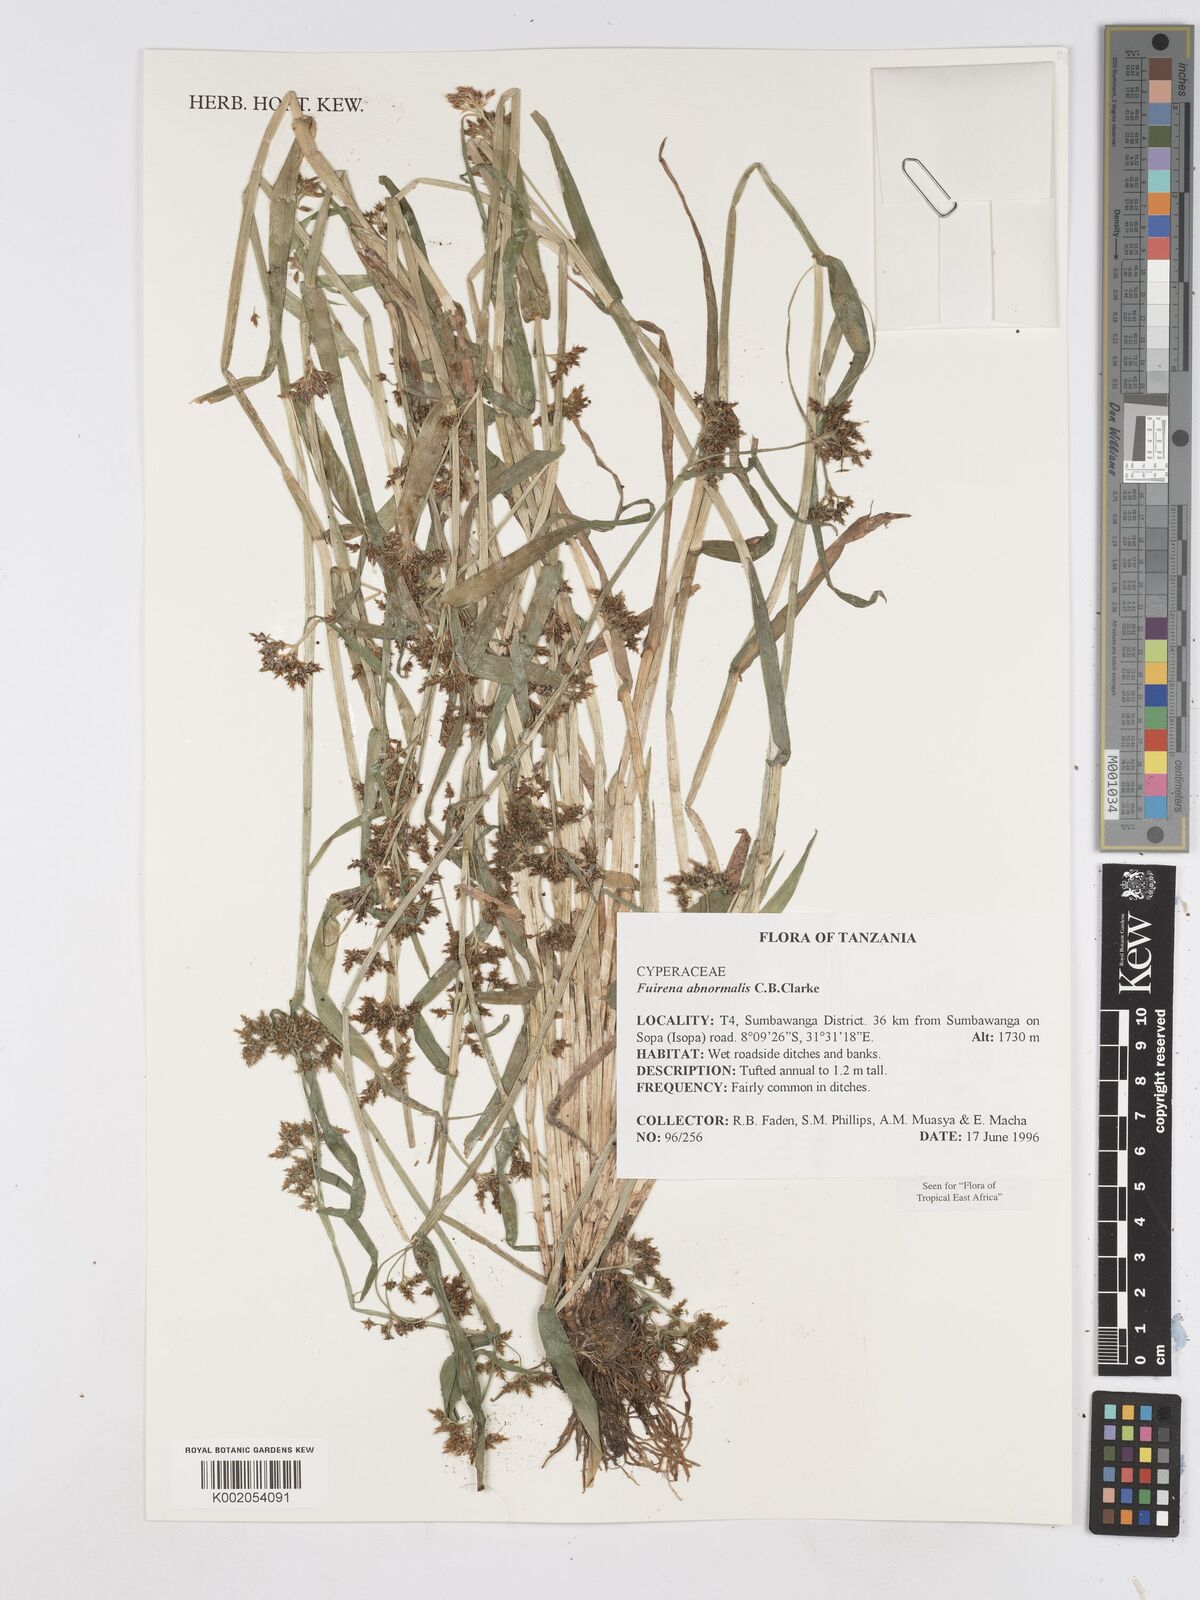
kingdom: Plantae
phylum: Tracheophyta
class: Liliopsida
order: Poales
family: Cyperaceae
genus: Fuirena
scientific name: Fuirena abnormalis
